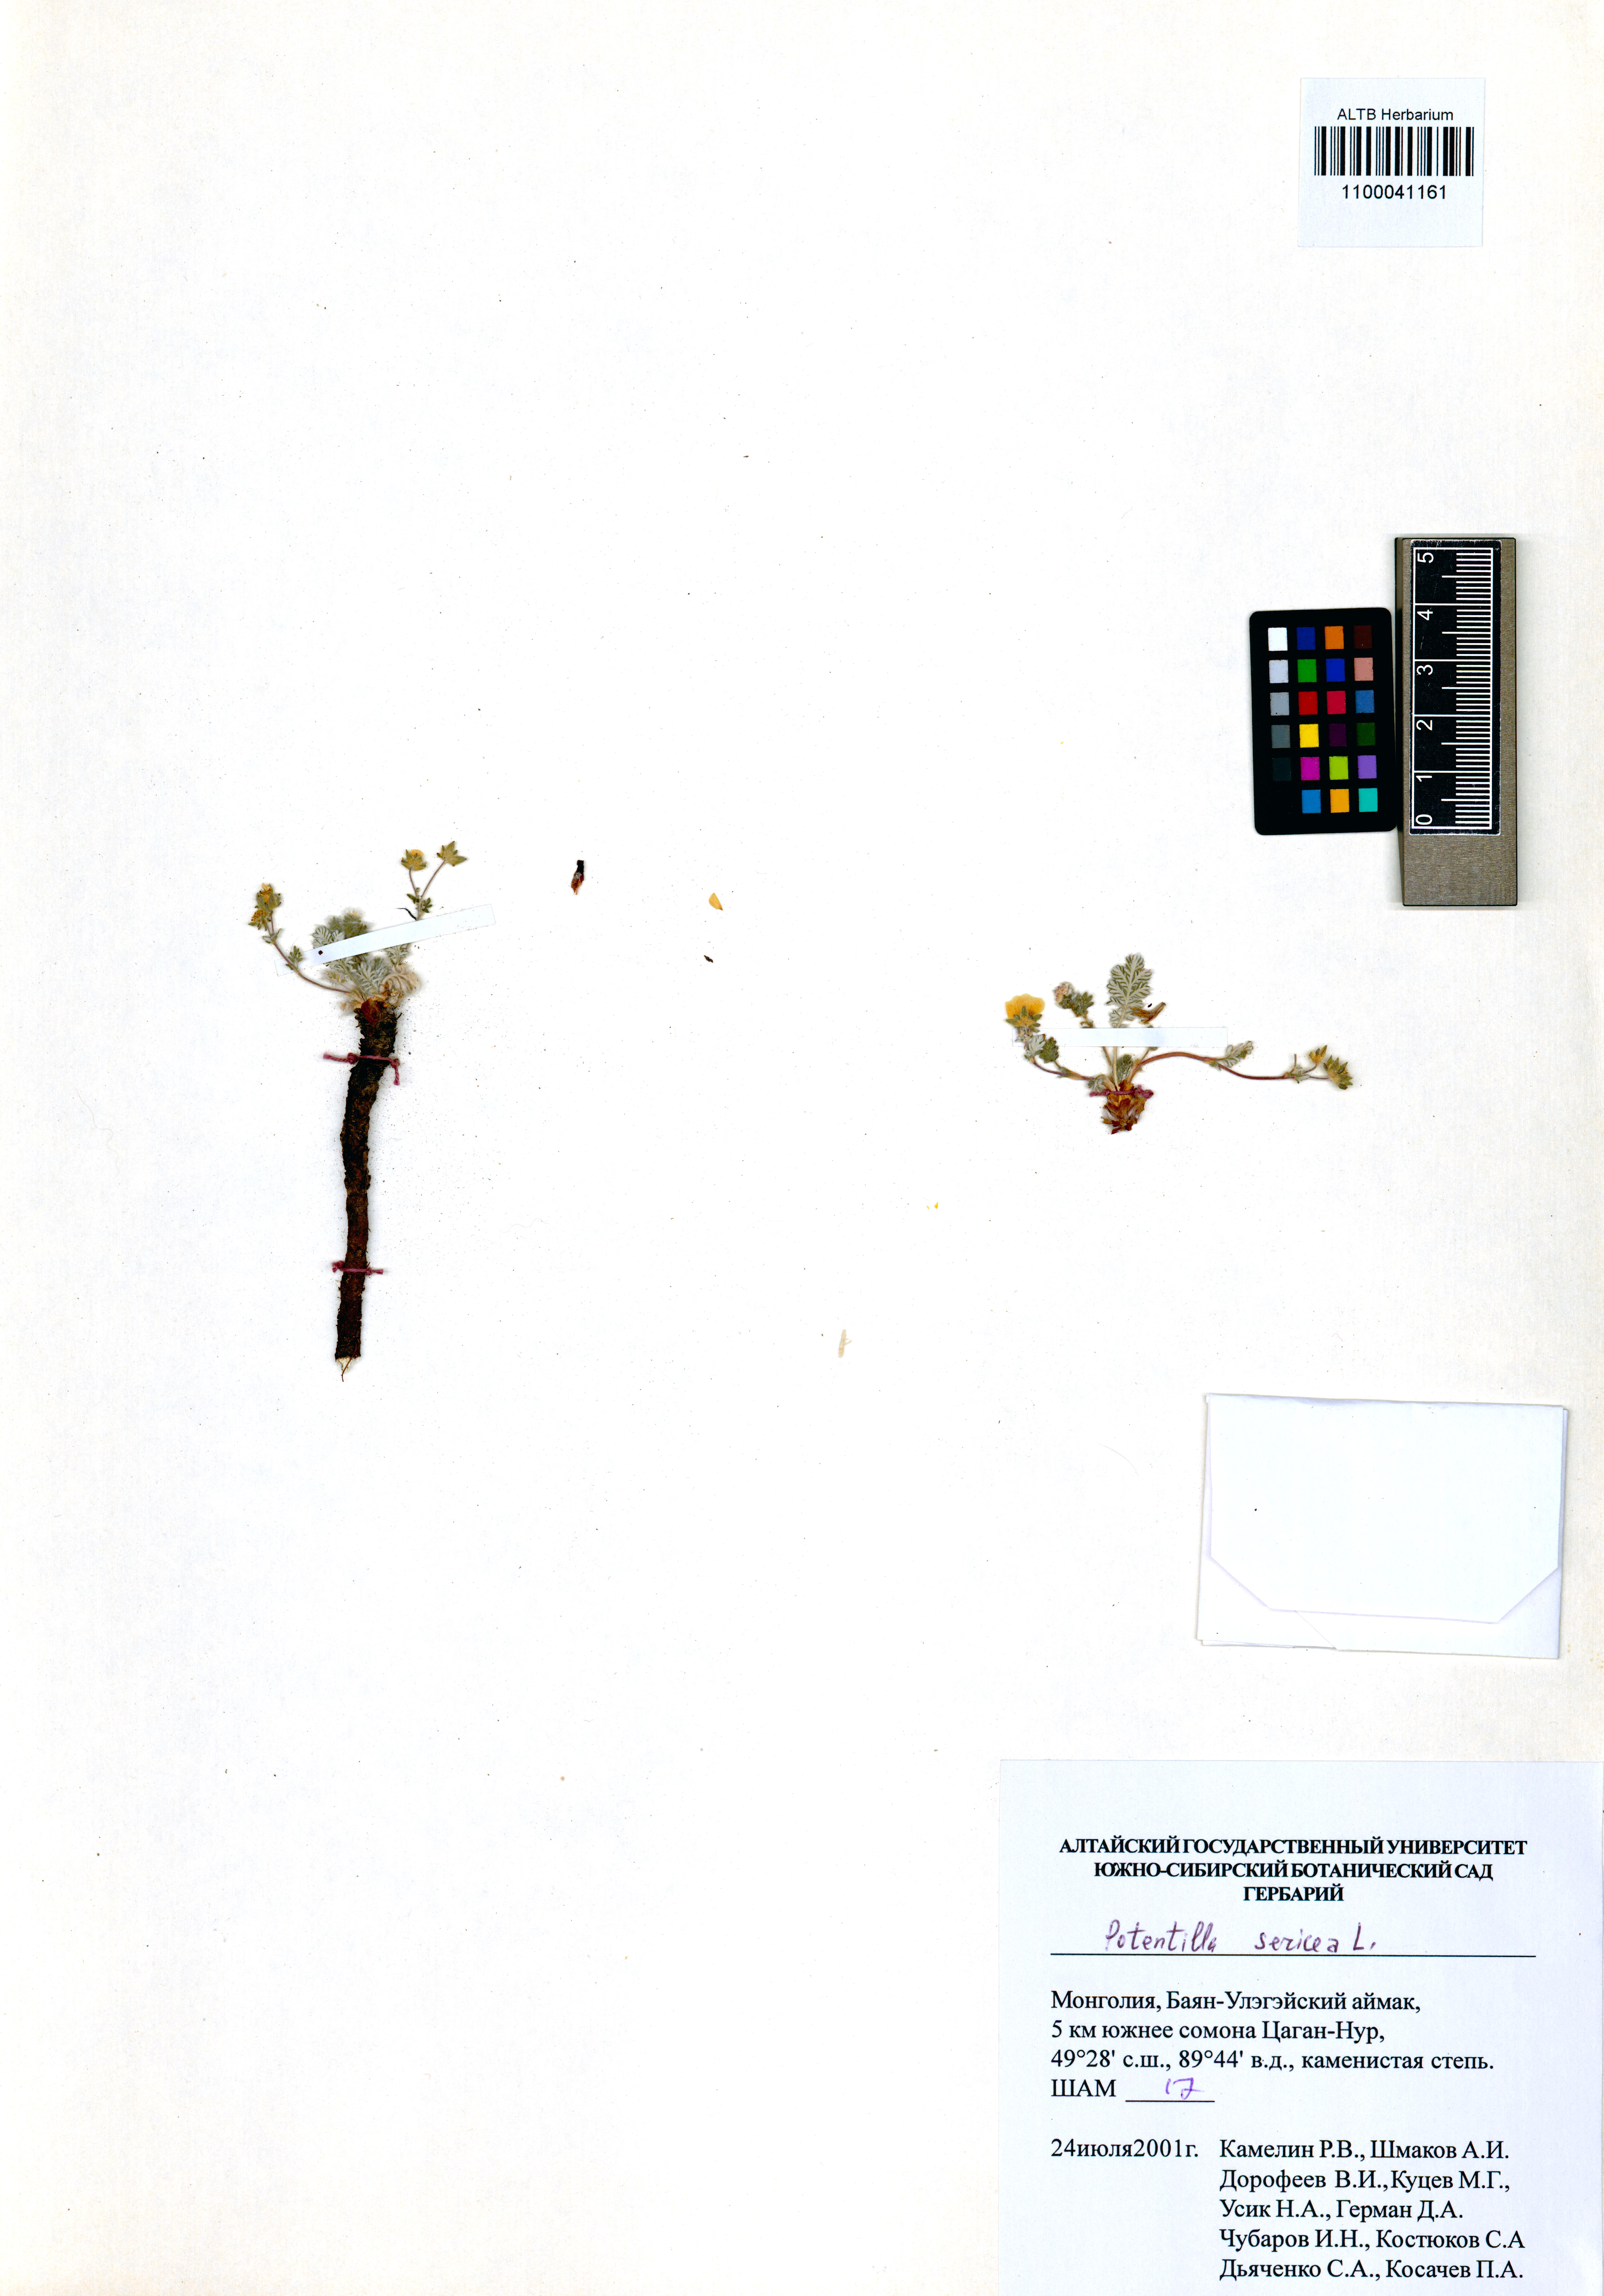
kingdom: Plantae
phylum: Tracheophyta
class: Magnoliopsida
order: Rosales
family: Rosaceae
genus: Potentilla
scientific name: Potentilla sericea
